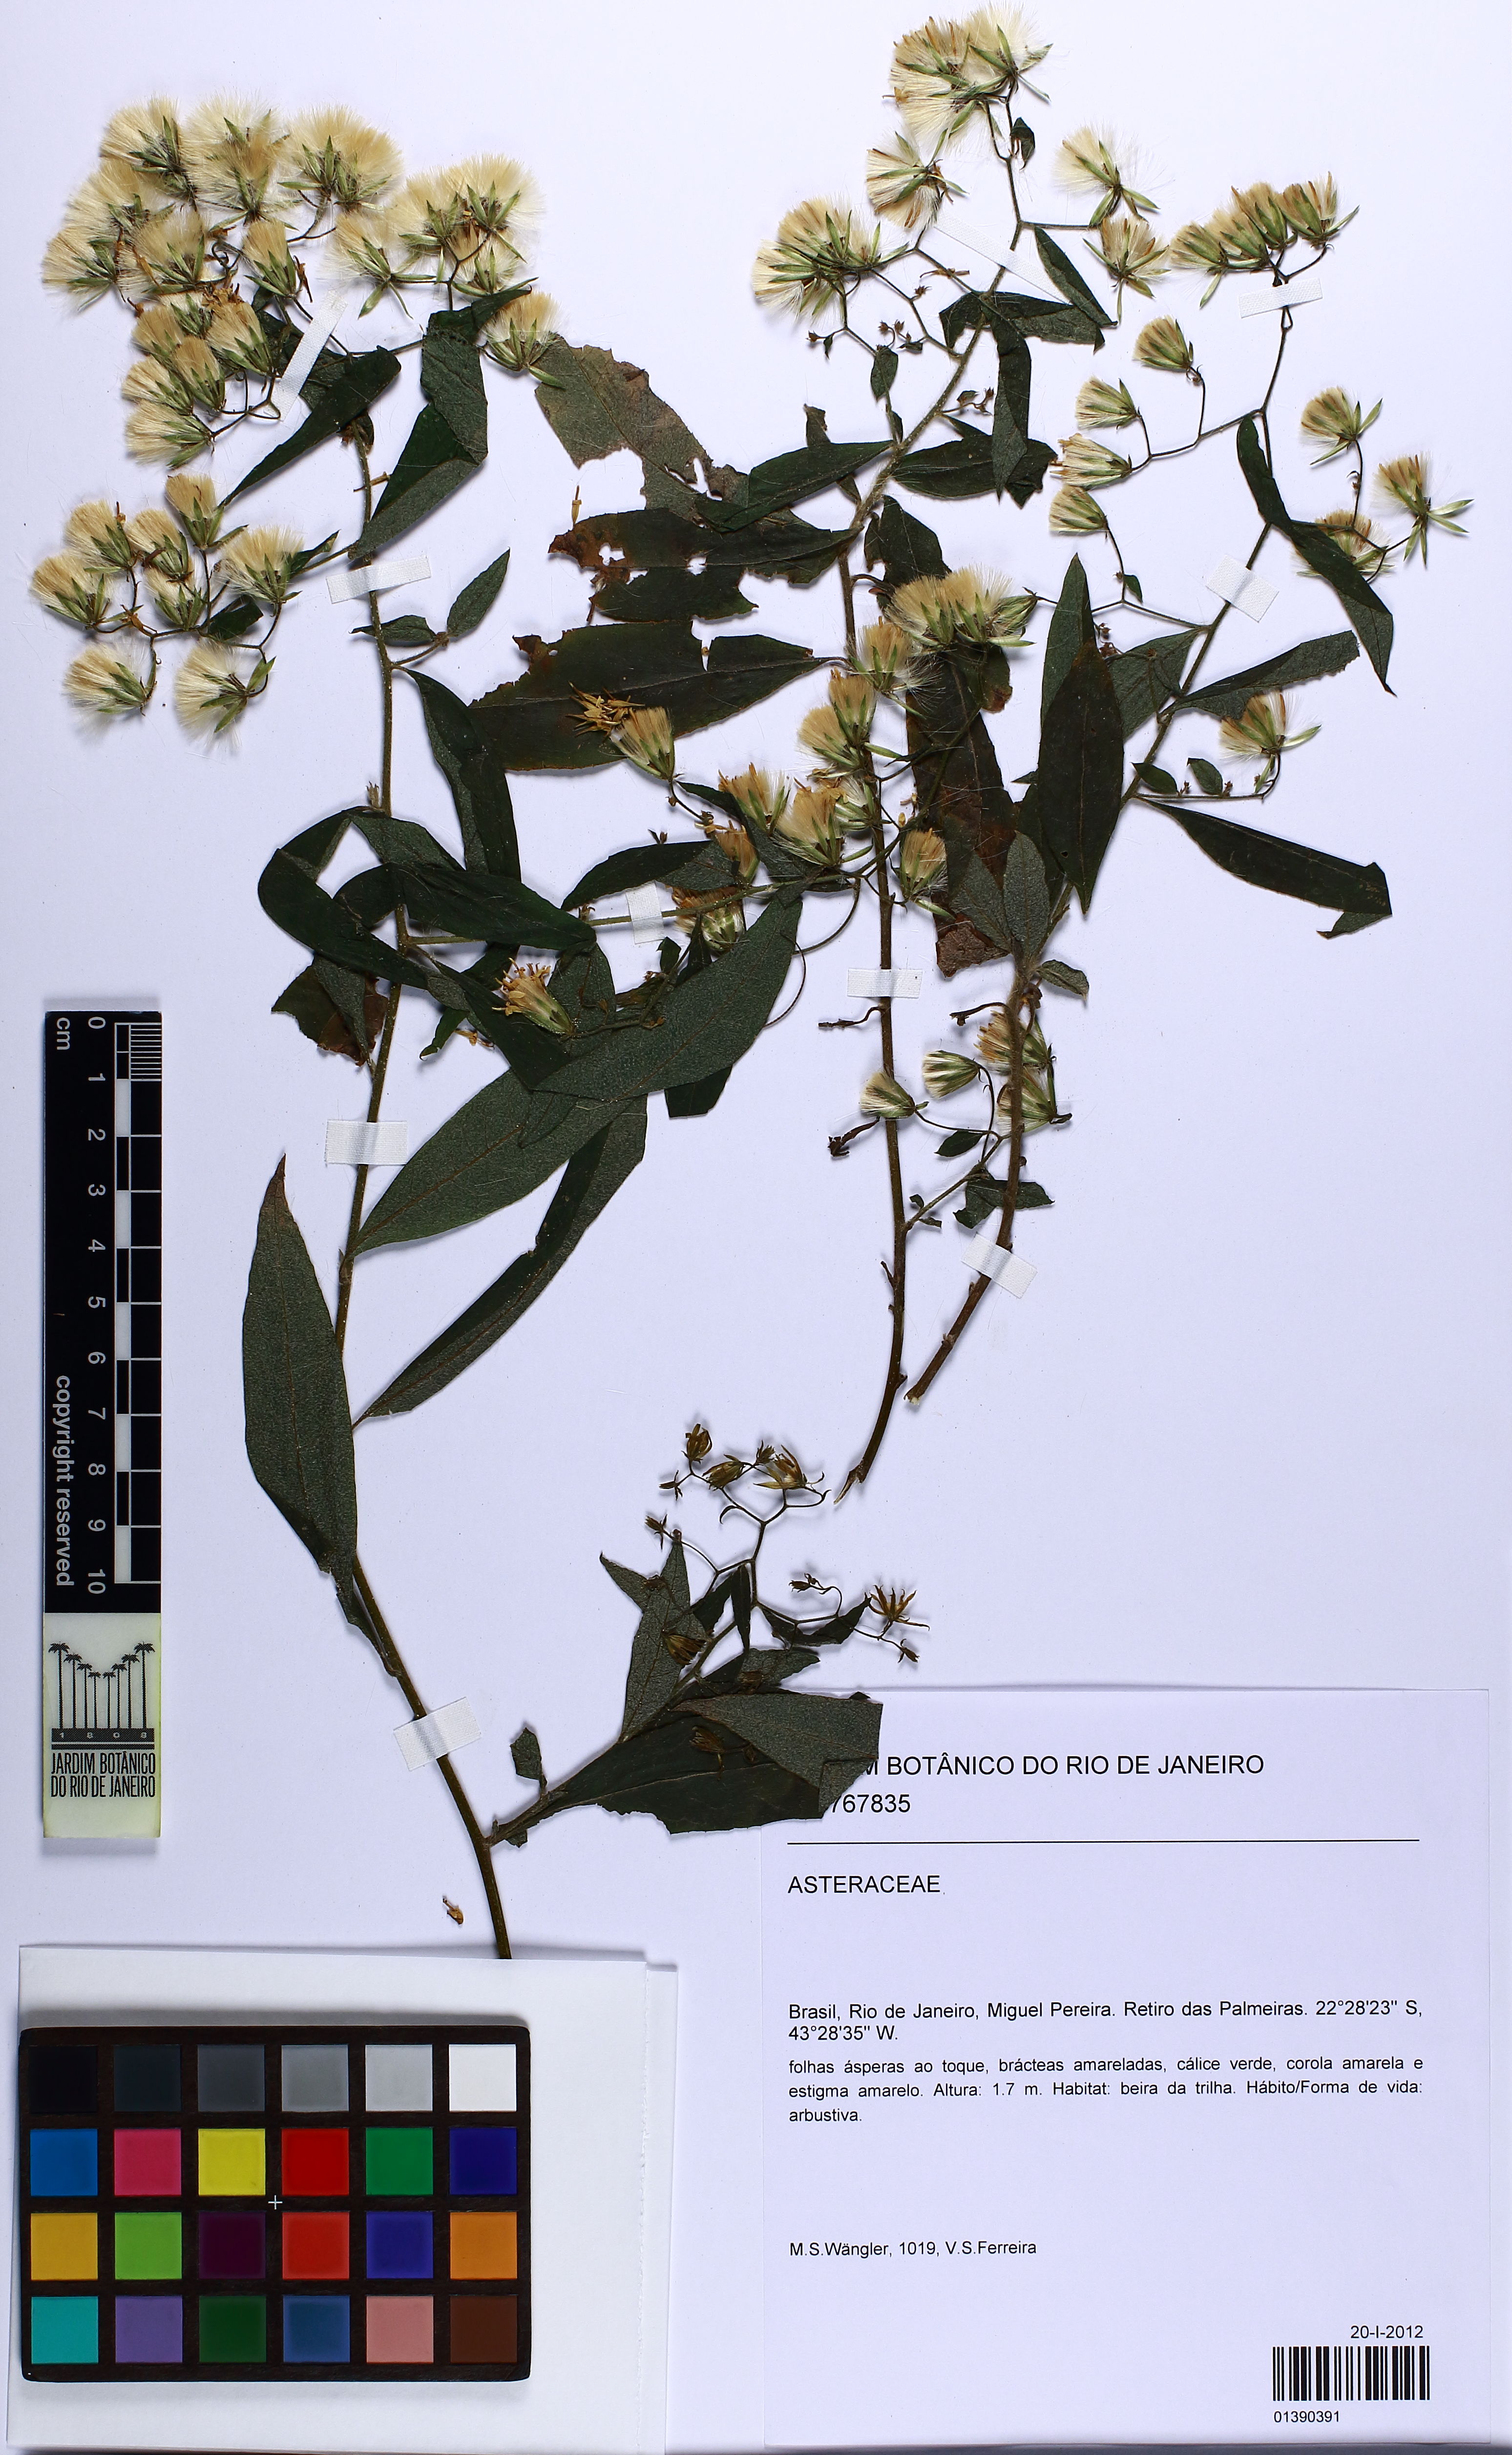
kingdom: Plantae
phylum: Tracheophyta
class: Magnoliopsida
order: Asterales
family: Asteraceae
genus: Trixis
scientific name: Trixis
